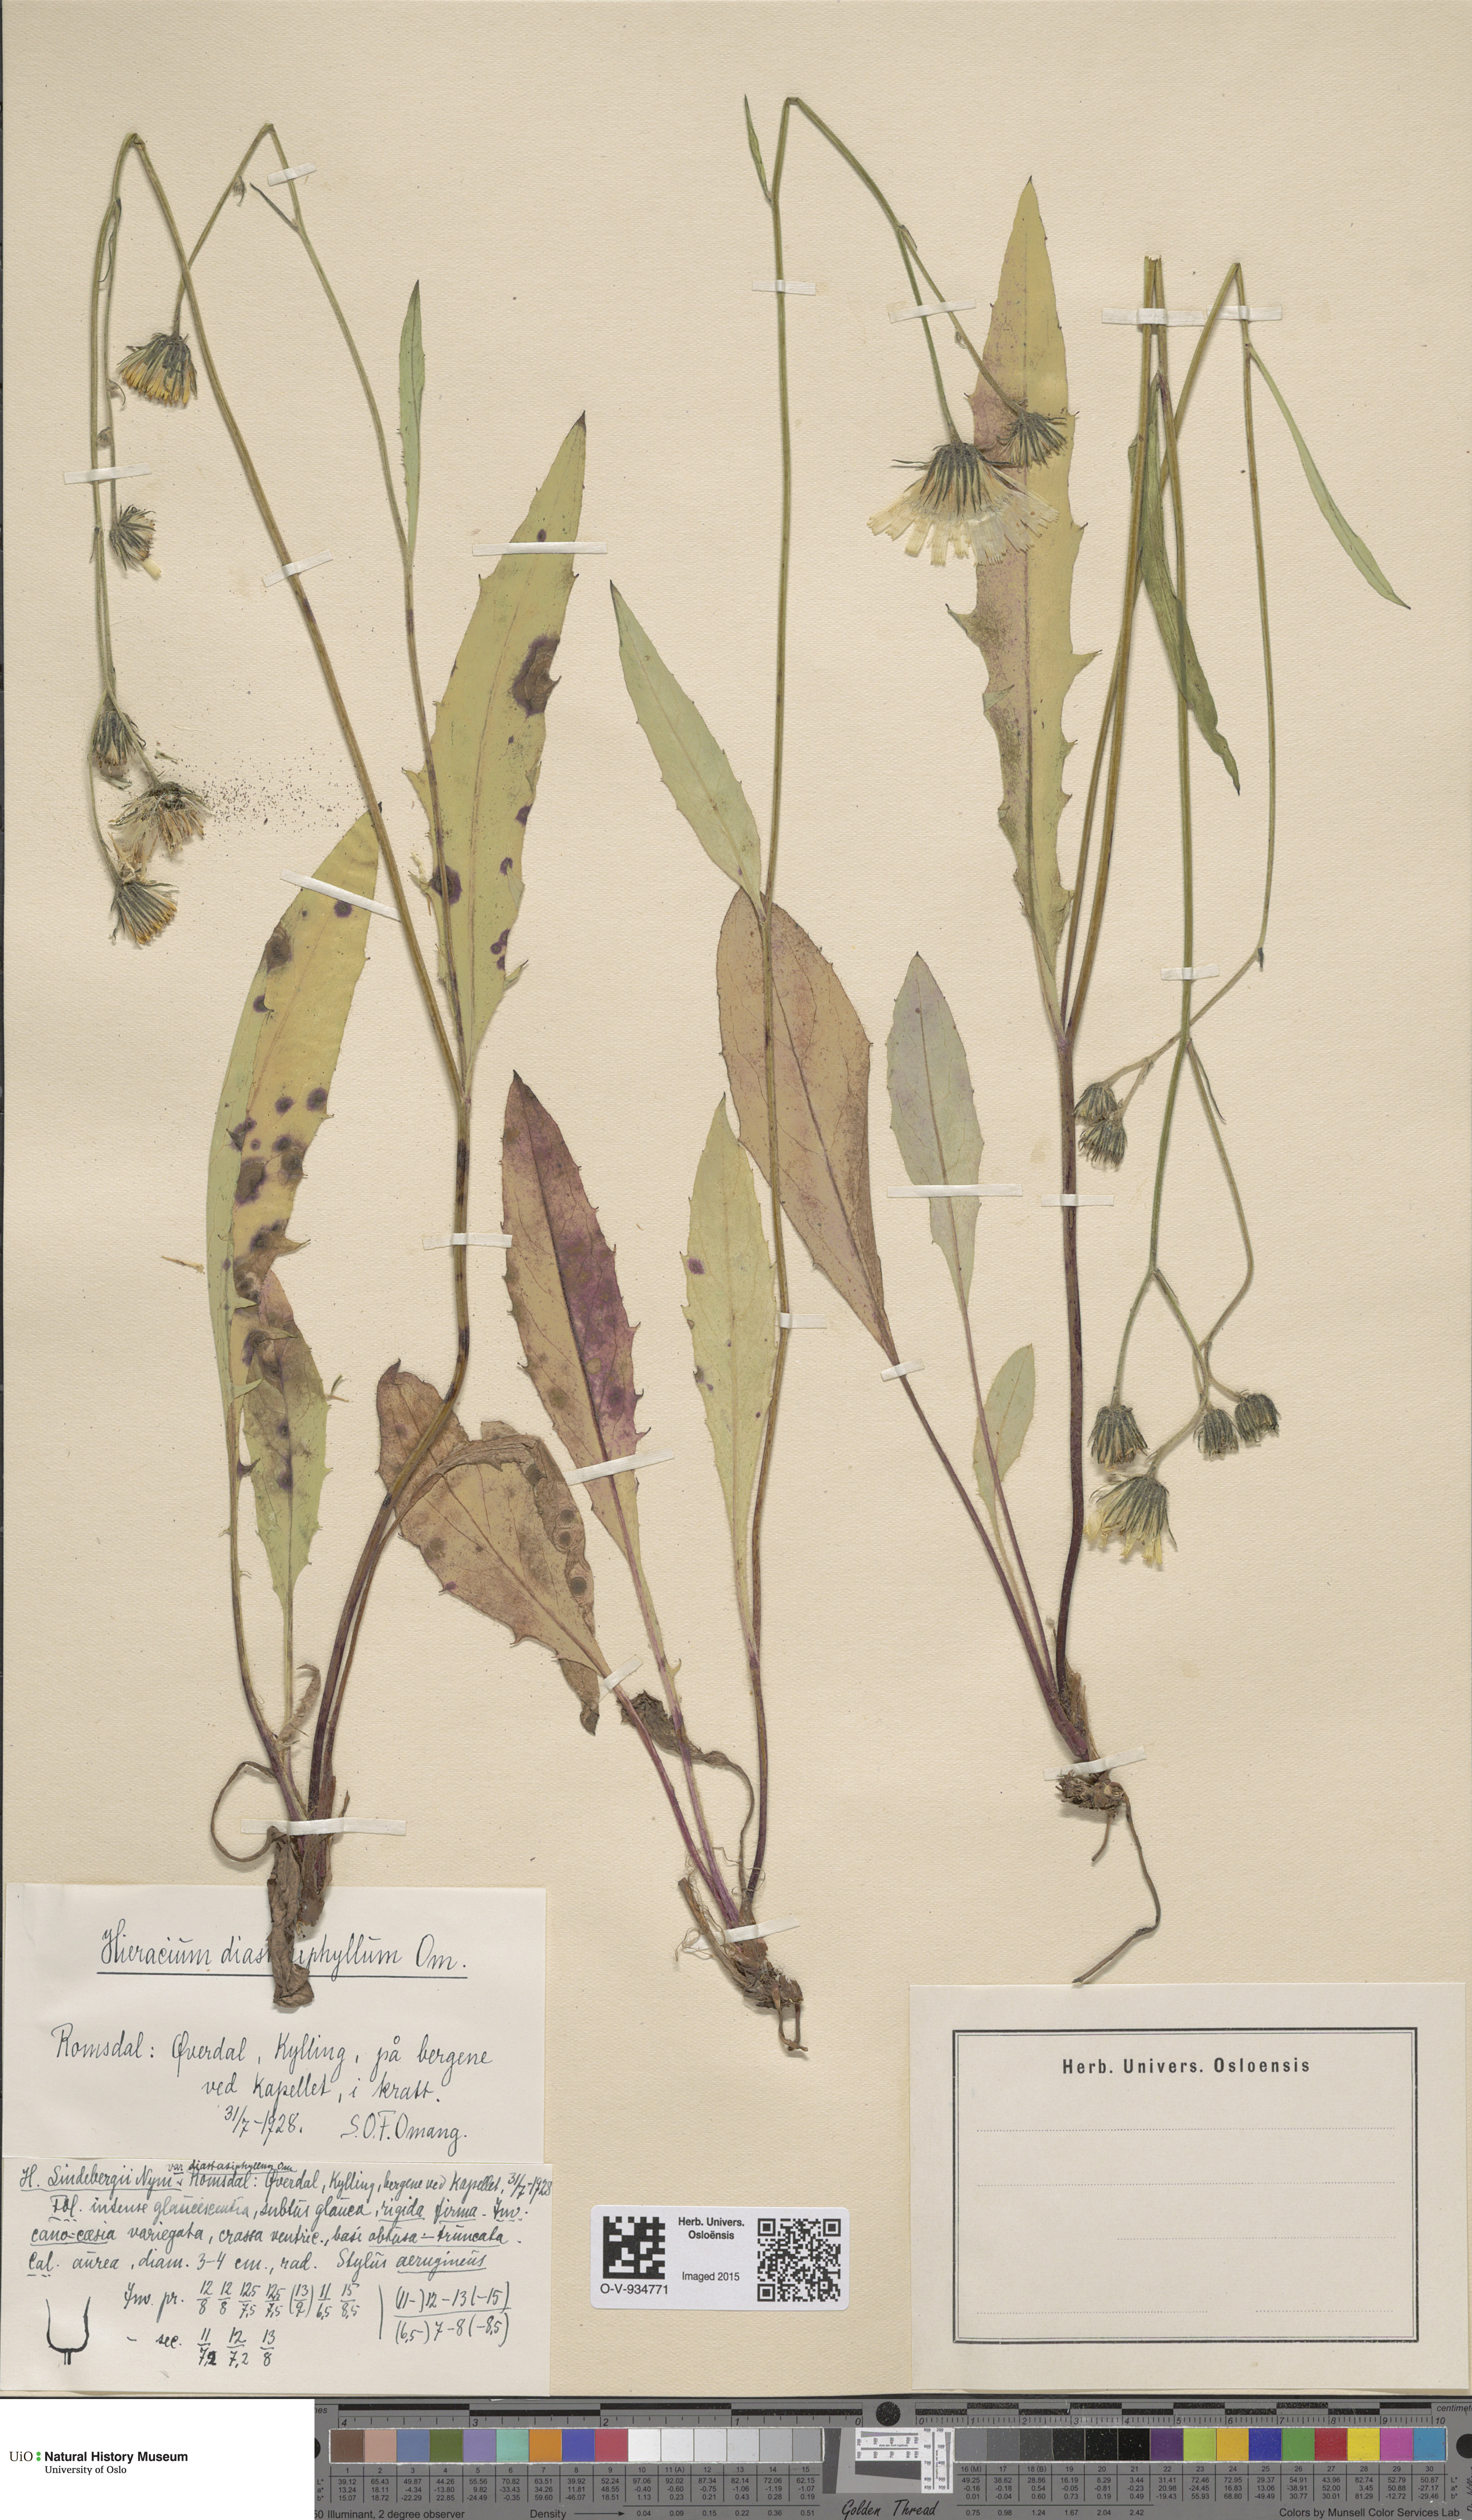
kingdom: Plantae
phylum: Tracheophyta
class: Magnoliopsida
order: Asterales
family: Asteraceae
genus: Hieracium
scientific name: Hieracium
